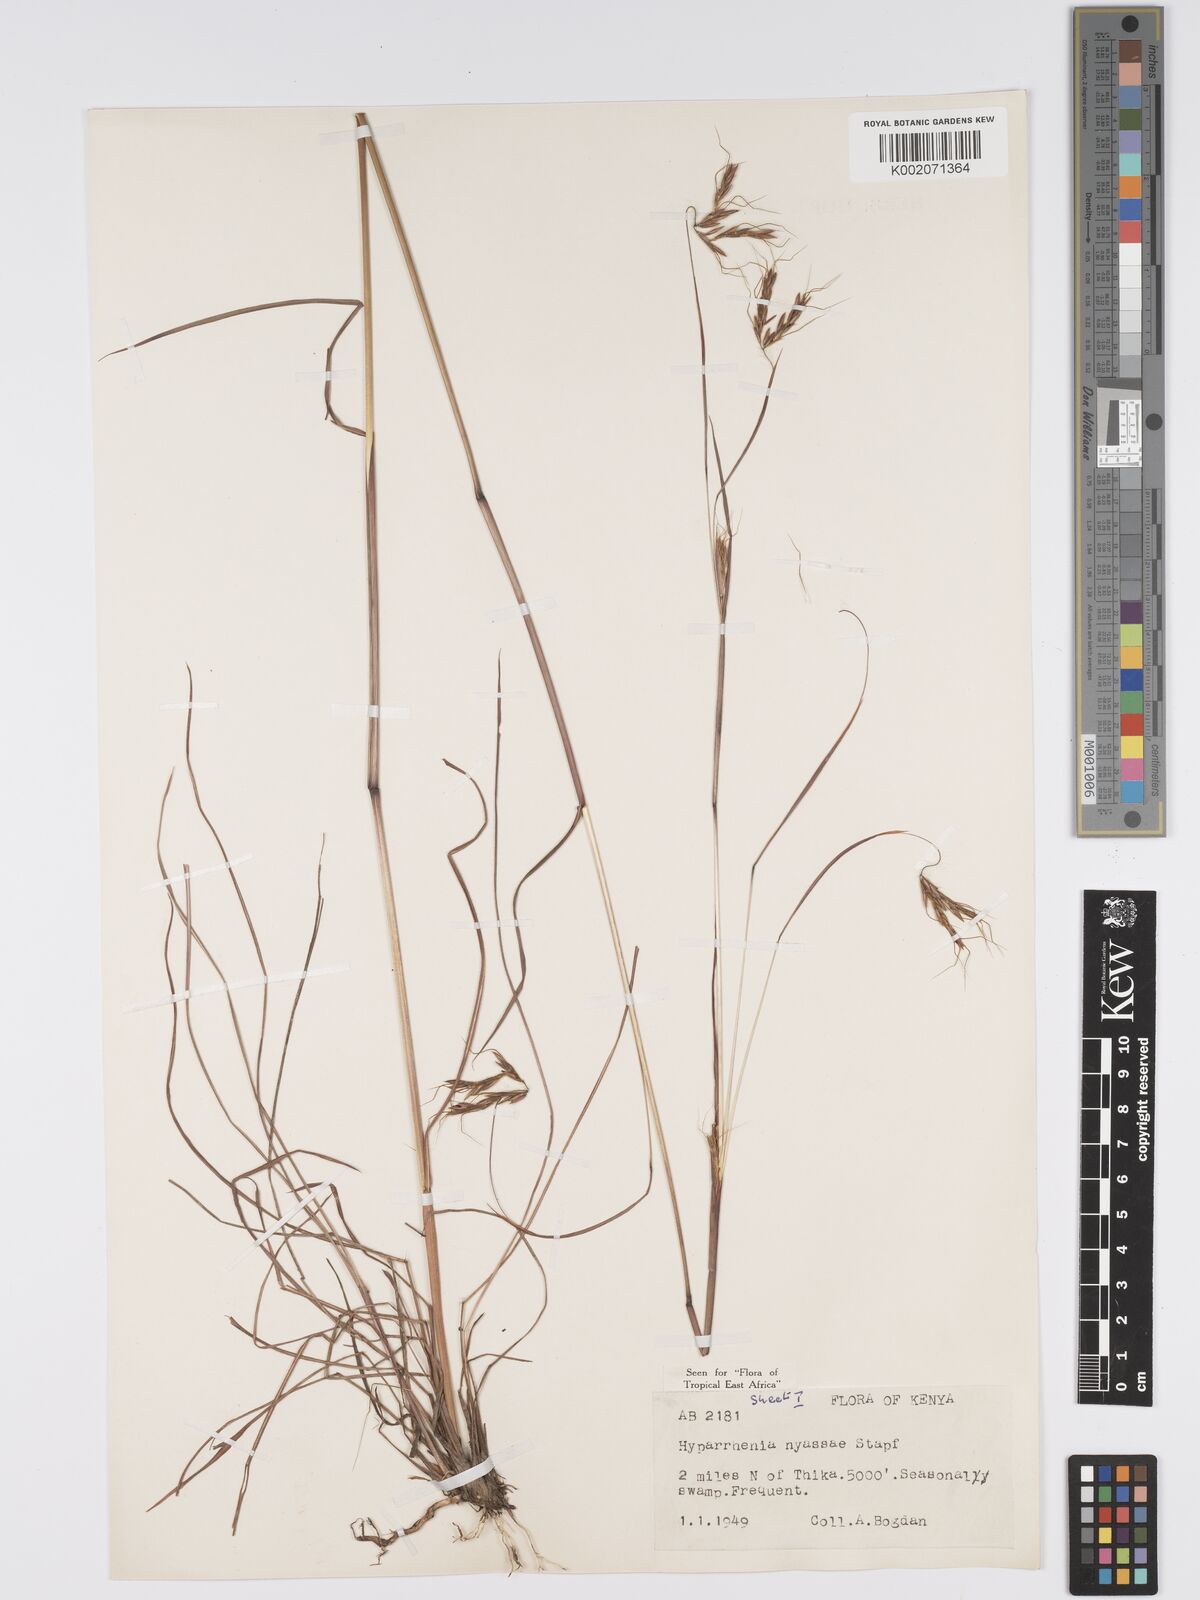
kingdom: Plantae
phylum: Tracheophyta
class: Liliopsida
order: Poales
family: Poaceae
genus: Hyparrhenia
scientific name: Hyparrhenia nyassae
